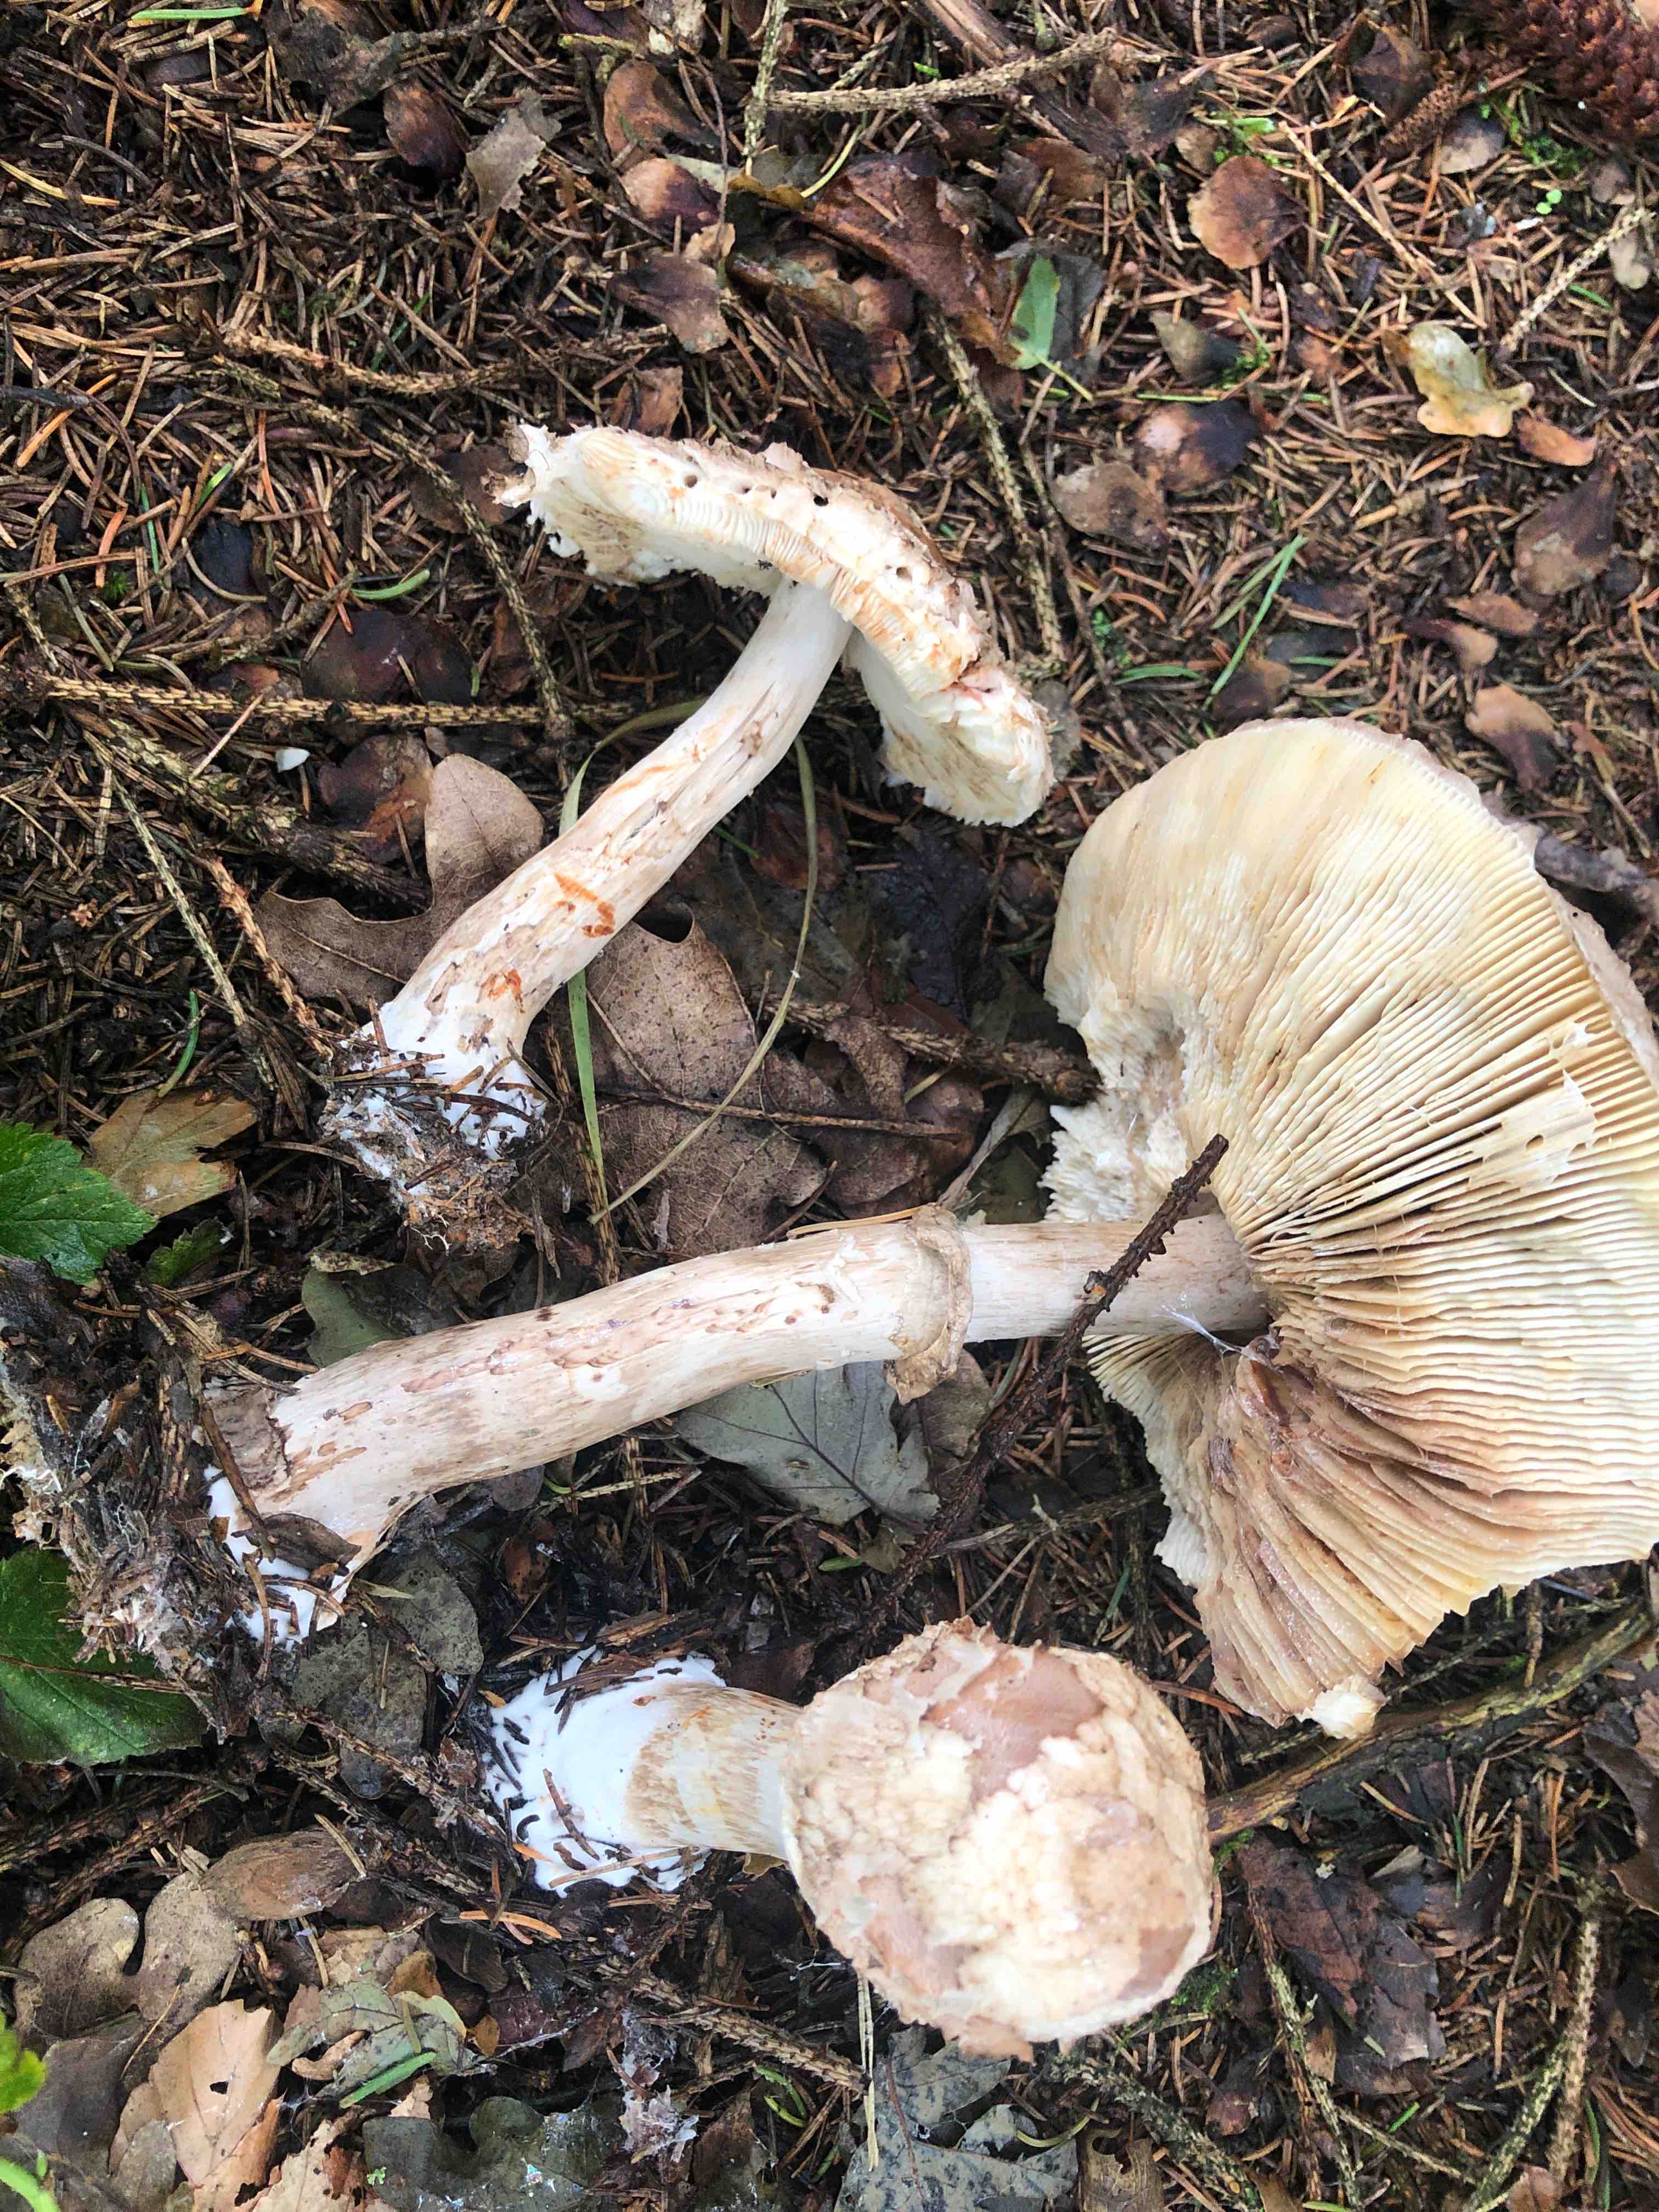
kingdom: Fungi
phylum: Basidiomycota
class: Agaricomycetes
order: Agaricales
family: Agaricaceae
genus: Chlorophyllum
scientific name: Chlorophyllum olivieri
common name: almindelig rabarberhat
